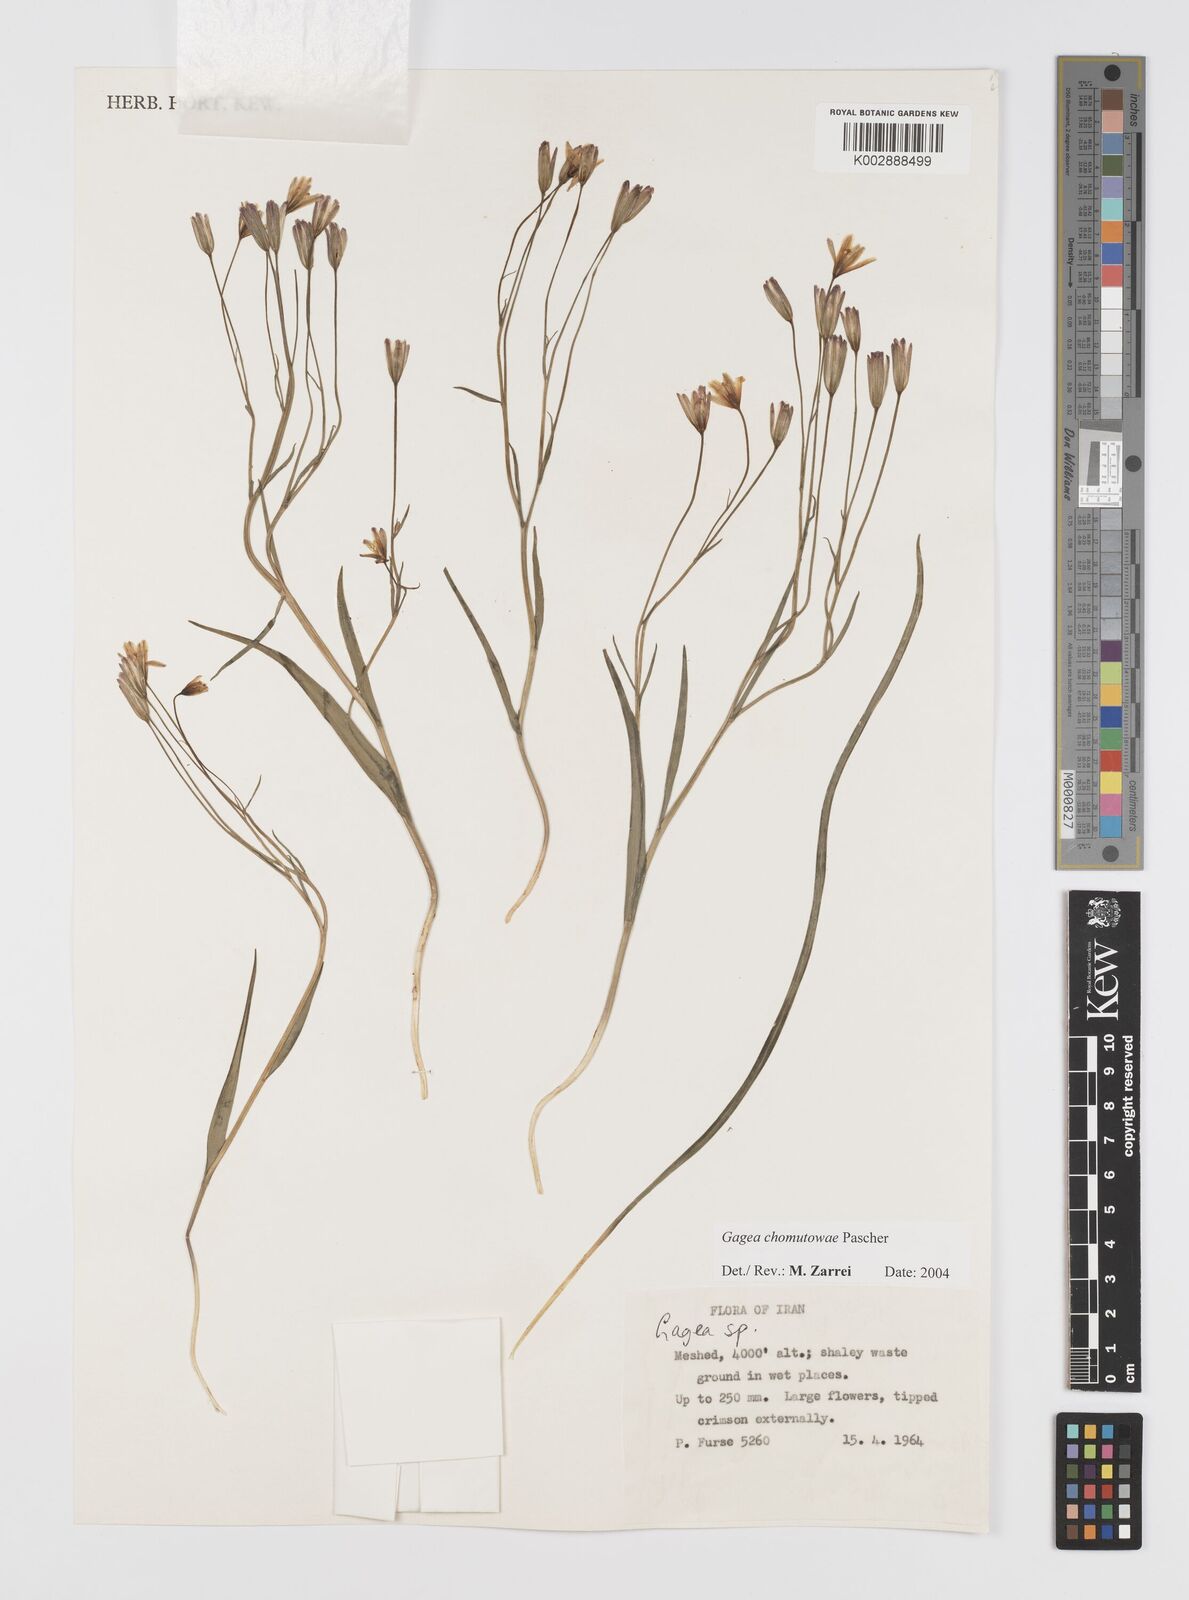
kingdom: Plantae
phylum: Tracheophyta
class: Liliopsida
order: Liliales
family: Liliaceae
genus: Gagea
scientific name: Gagea chomutovae
